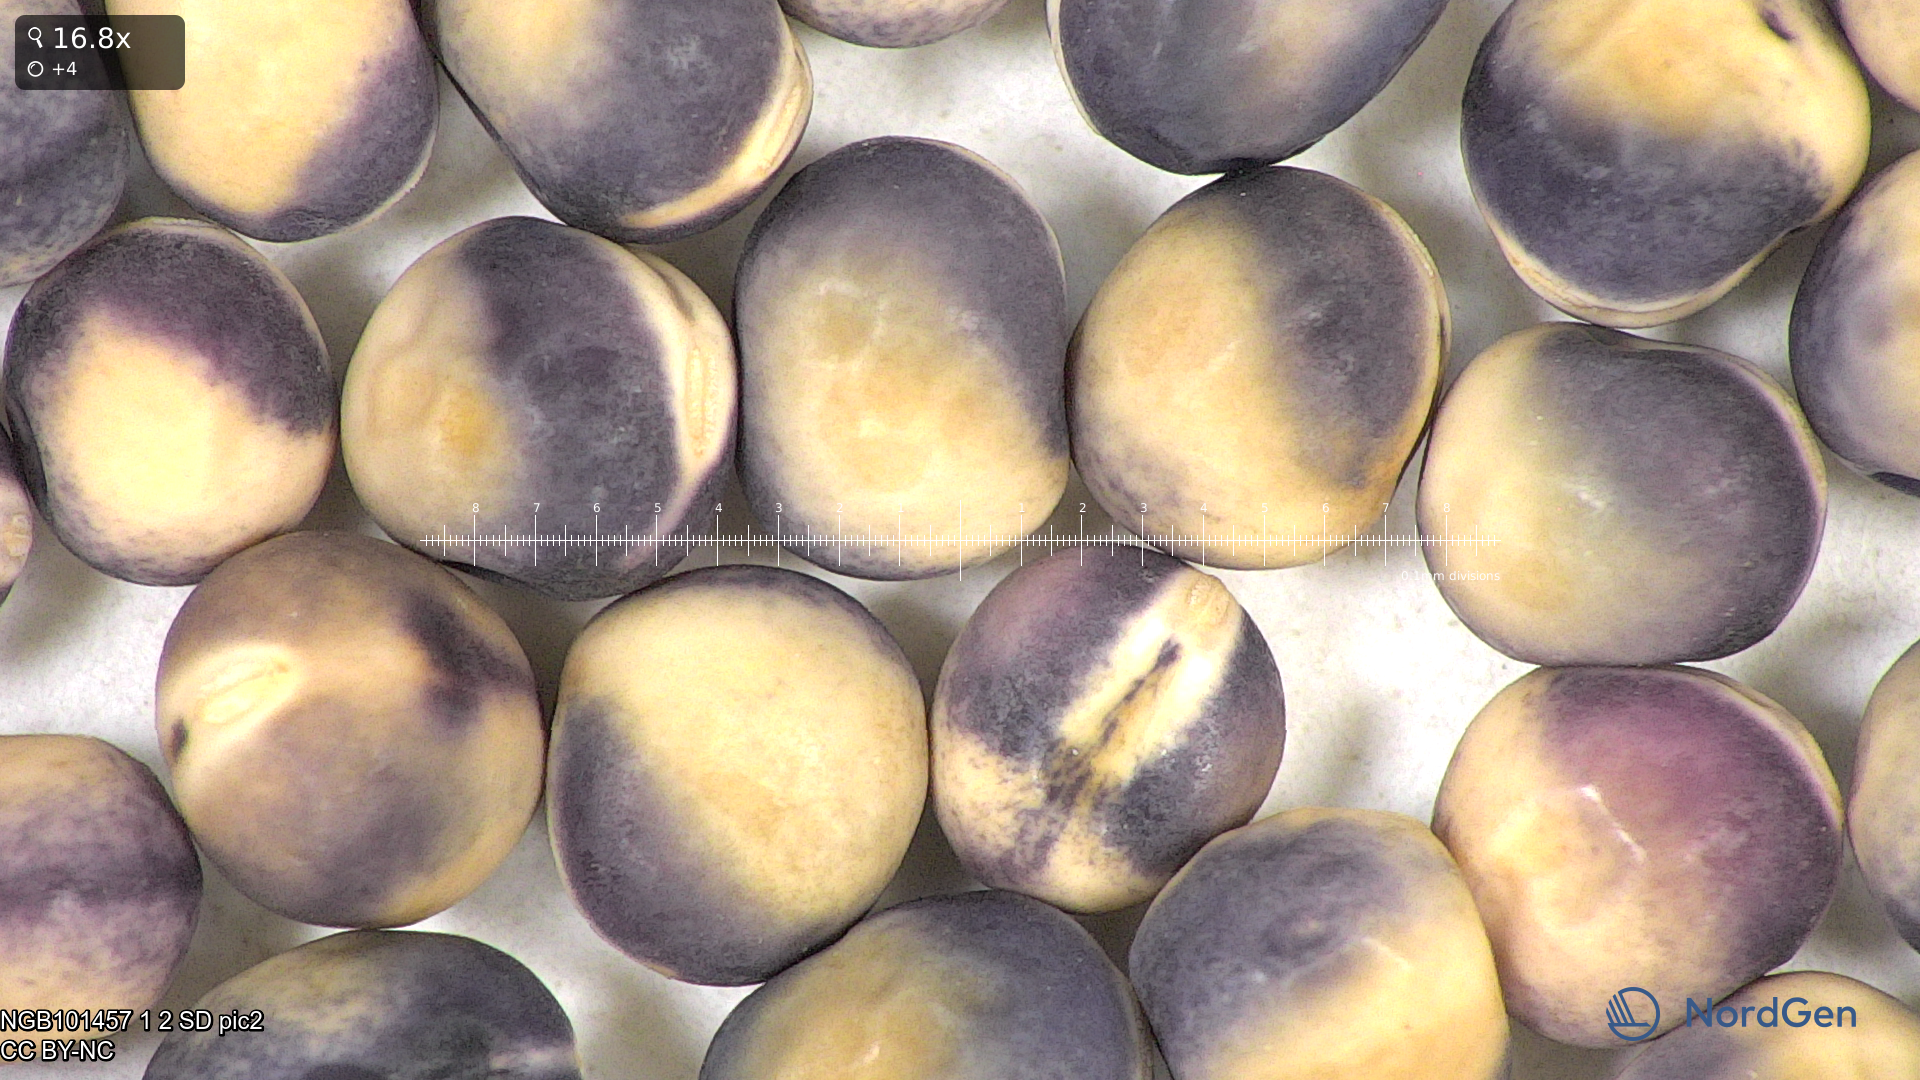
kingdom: Plantae
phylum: Tracheophyta
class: Magnoliopsida
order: Fabales
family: Fabaceae
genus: Lathyrus
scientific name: Lathyrus oleraceus
